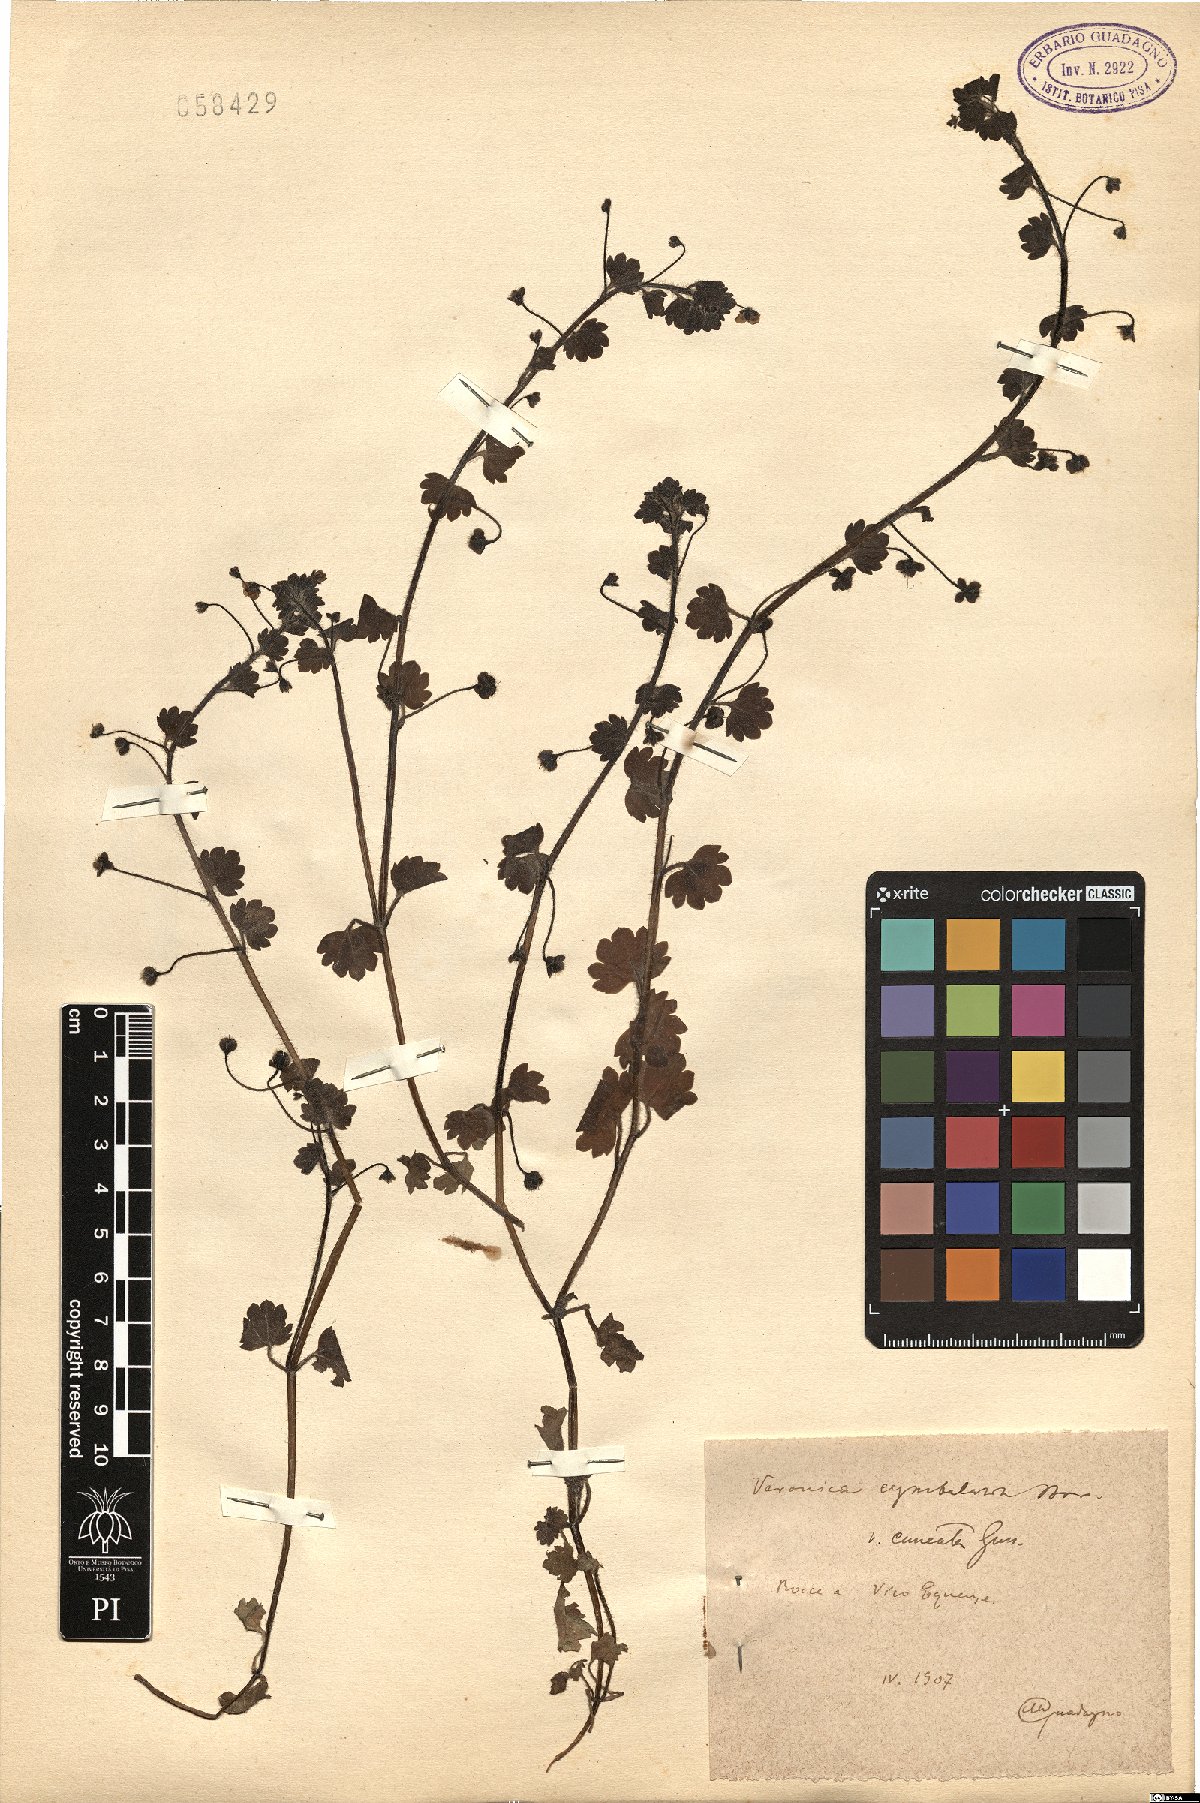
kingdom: Plantae
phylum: Tracheophyta
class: Magnoliopsida
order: Lamiales
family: Plantaginaceae
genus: Veronica
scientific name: Veronica cymbalaria
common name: Pale speedwell
